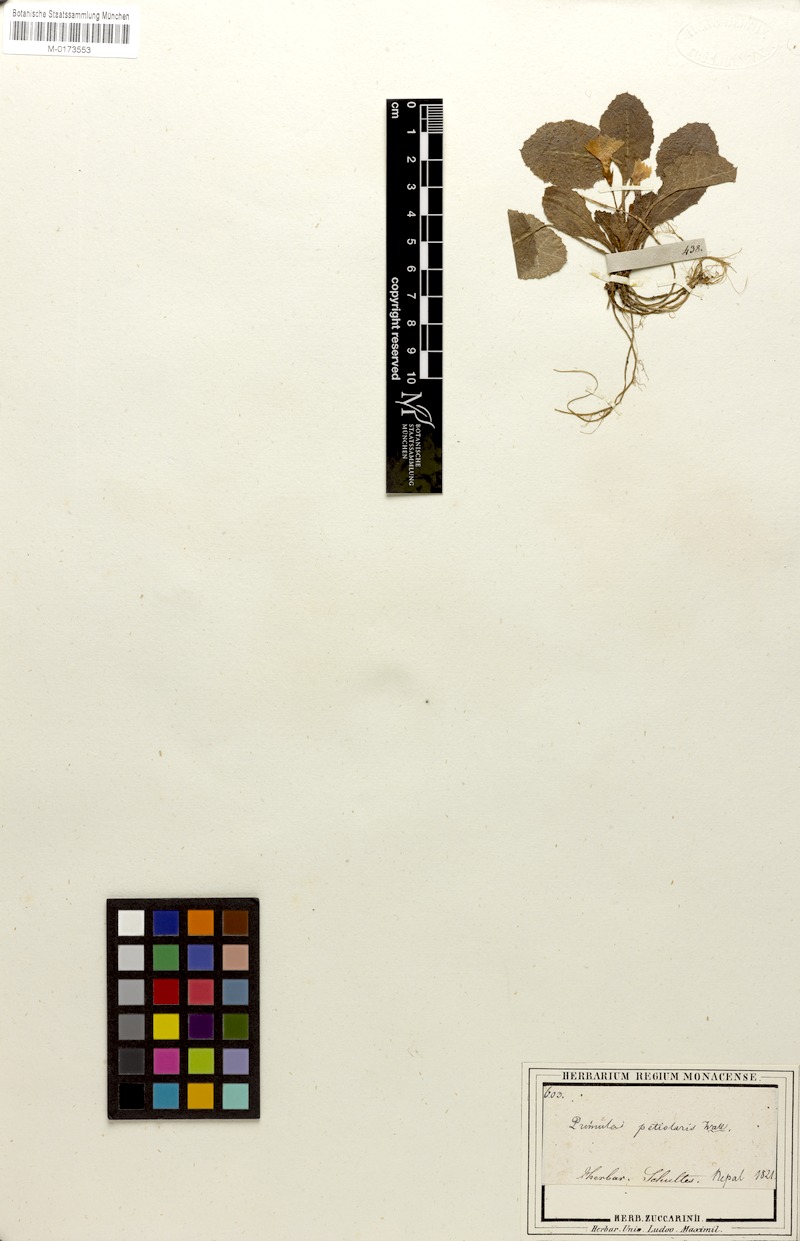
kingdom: Plantae
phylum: Tracheophyta
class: Magnoliopsida
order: Ericales
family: Primulaceae
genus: Primula
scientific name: Primula petiolaris
